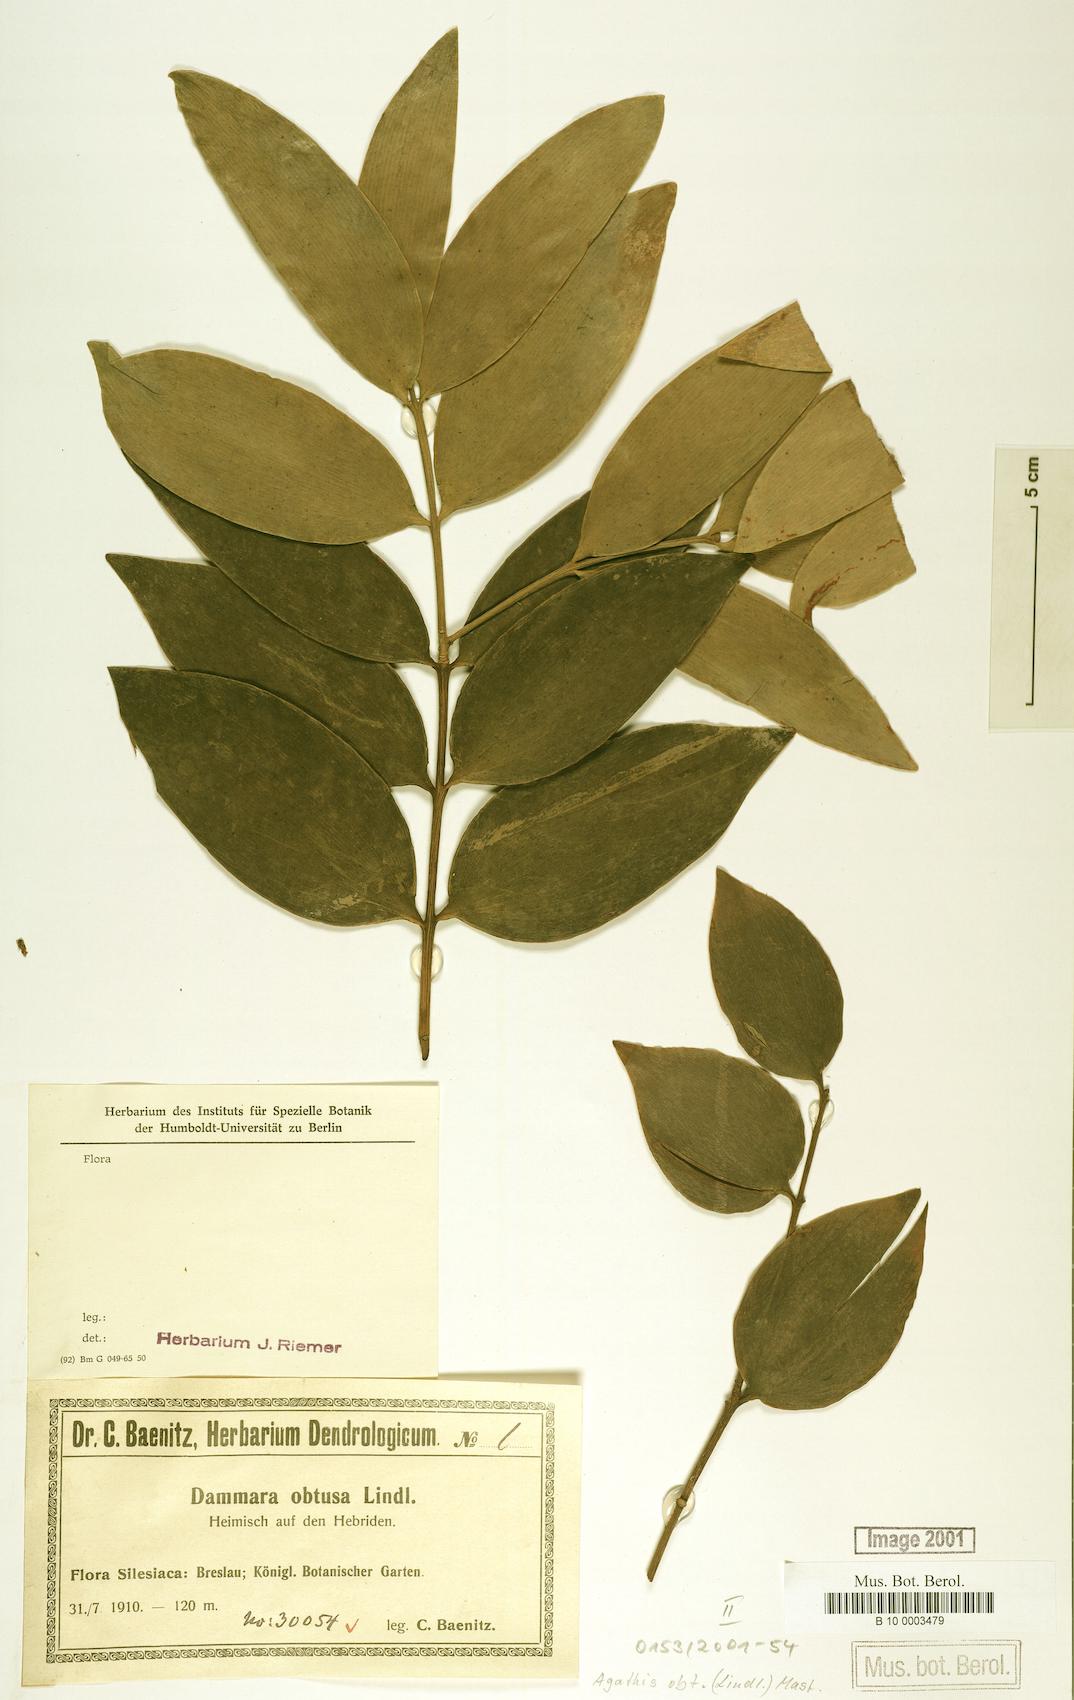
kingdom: Plantae
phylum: Tracheophyta
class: Pinopsida
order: Pinales
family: Araucariaceae
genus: Agathis
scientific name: Agathis macrophylla
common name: Fijian kauri pine
